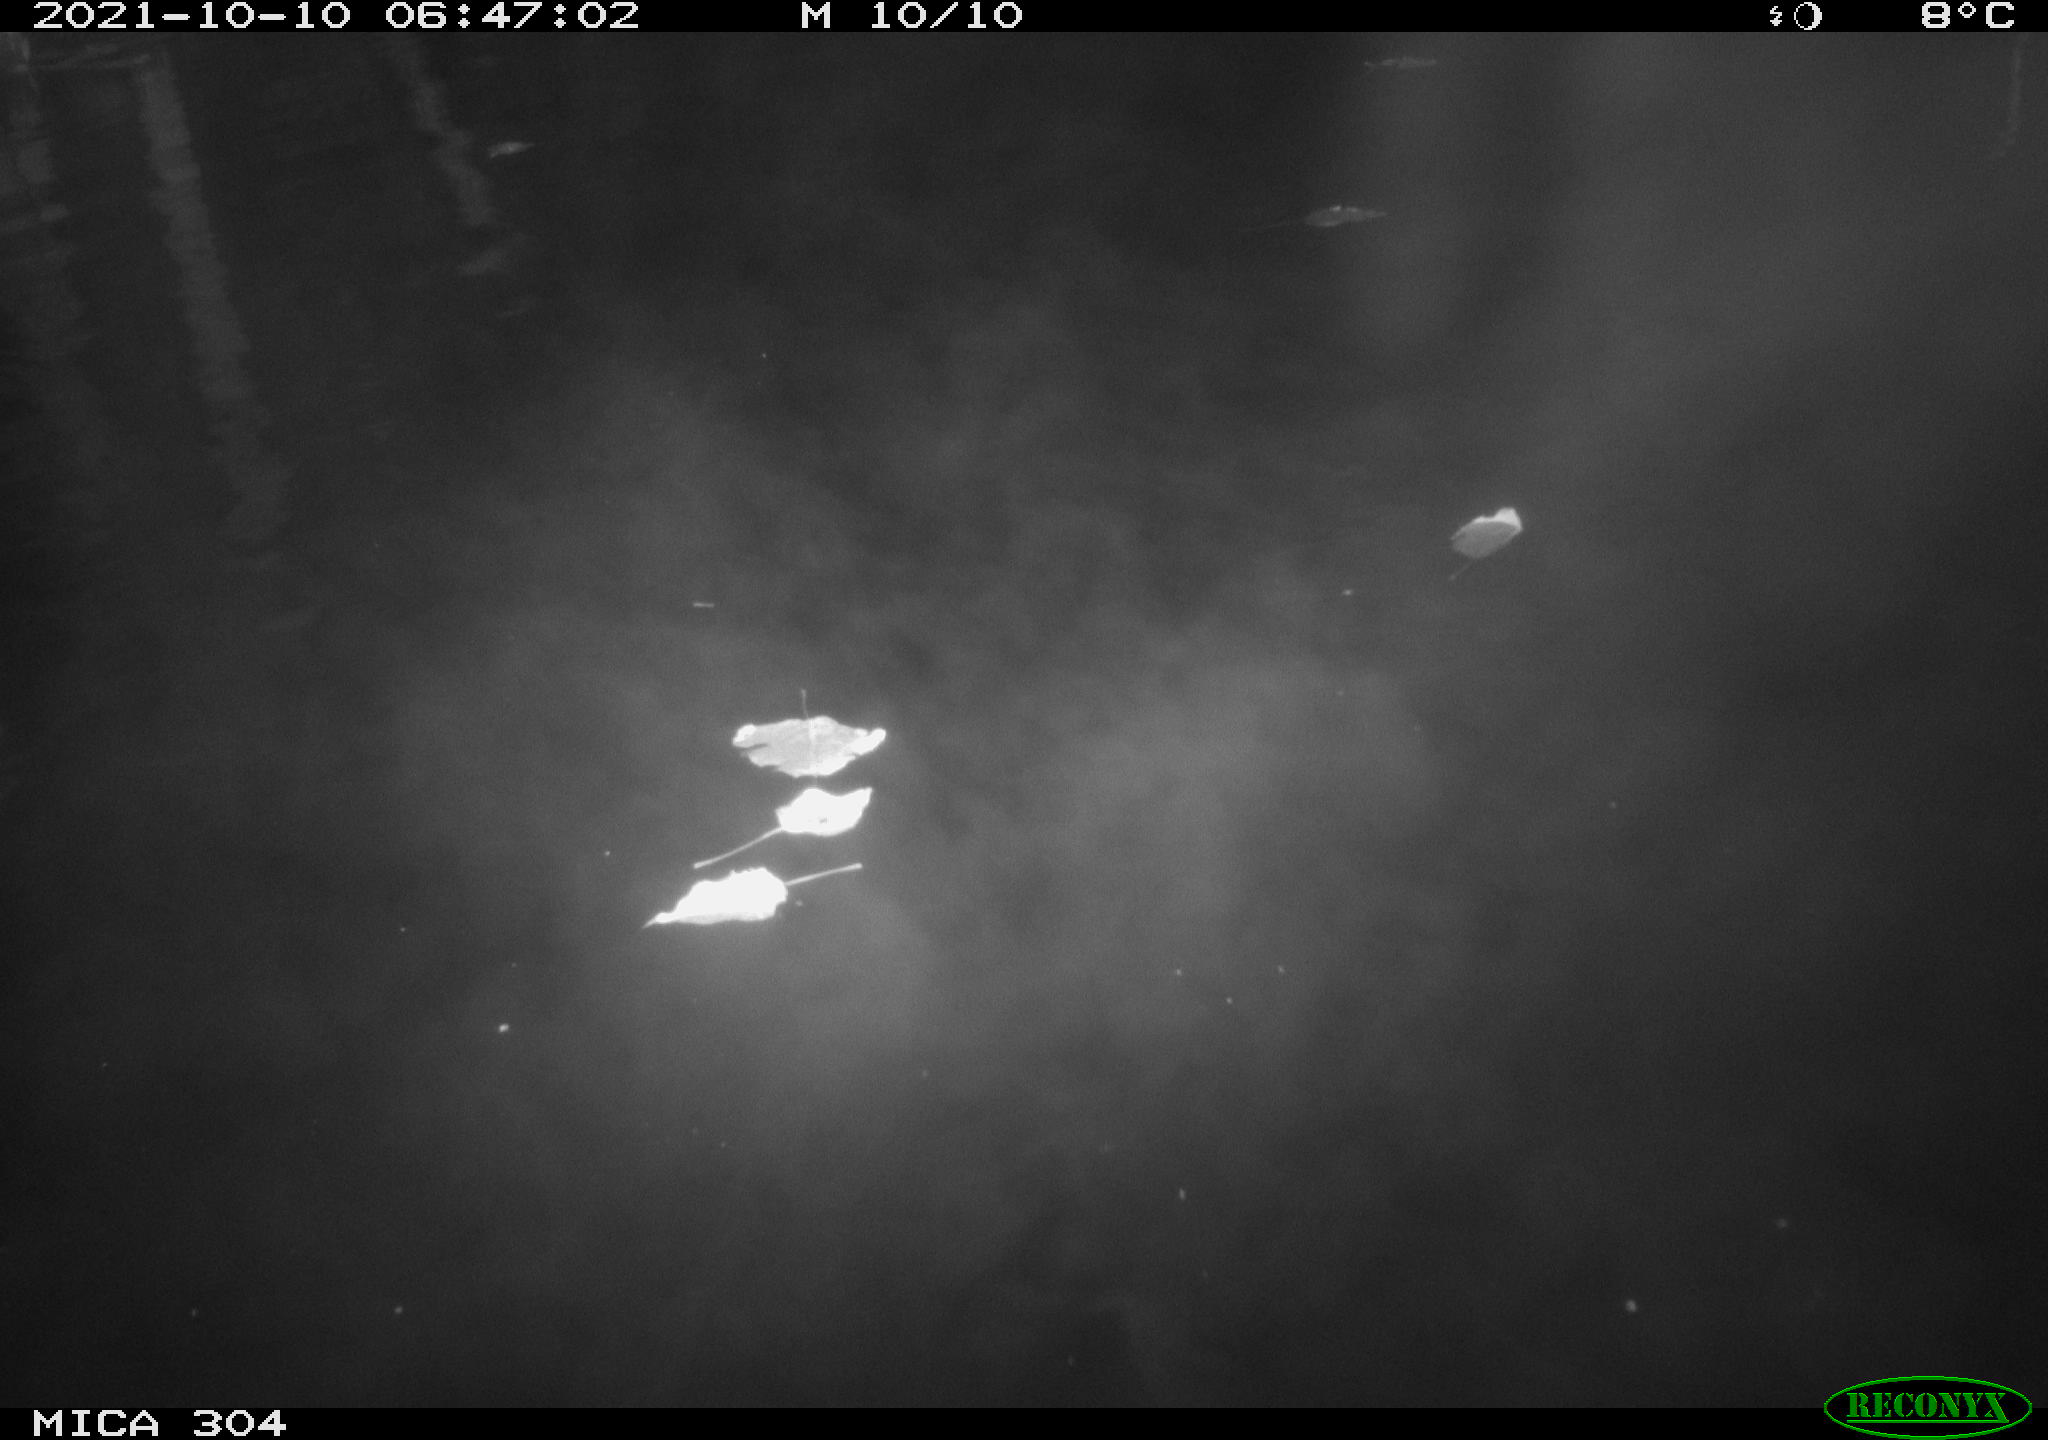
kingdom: Animalia
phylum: Chordata
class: Aves
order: Anseriformes
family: Anatidae
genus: Anas
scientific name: Anas platyrhynchos
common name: Mallard
